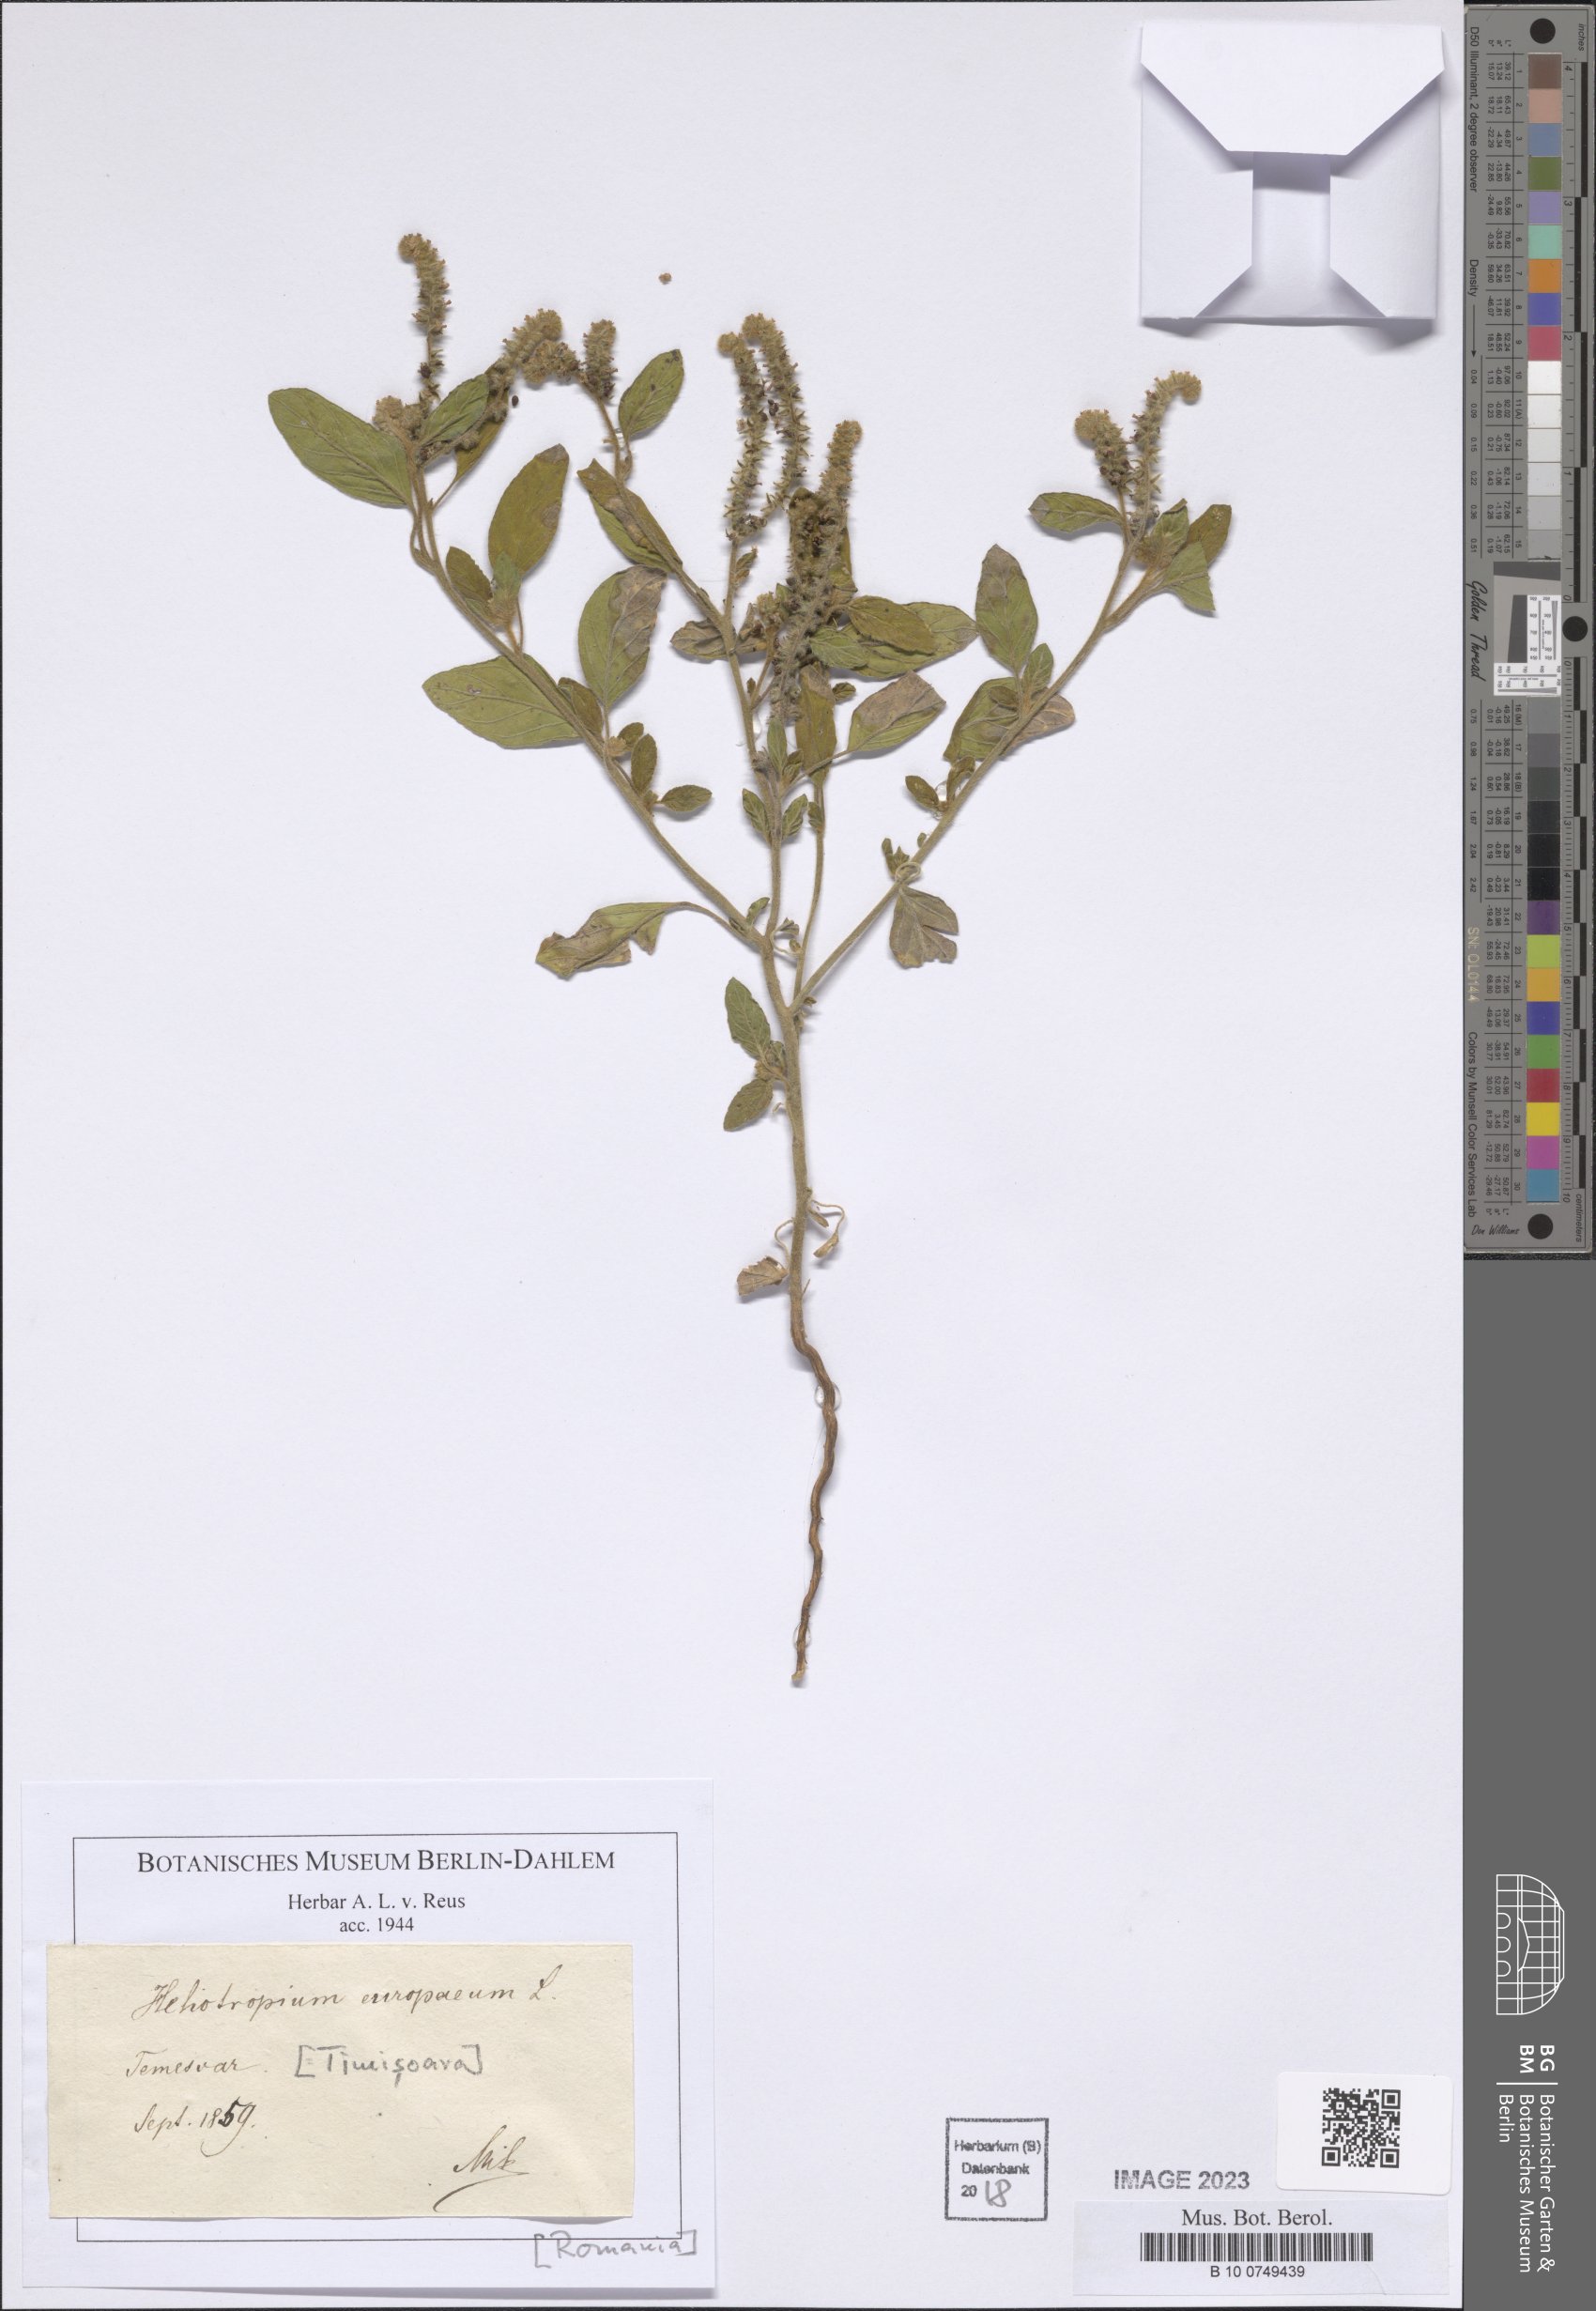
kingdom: Plantae
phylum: Tracheophyta
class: Magnoliopsida
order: Boraginales
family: Heliotropiaceae
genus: Heliotropium
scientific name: Heliotropium europaeum
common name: European heliotrope
